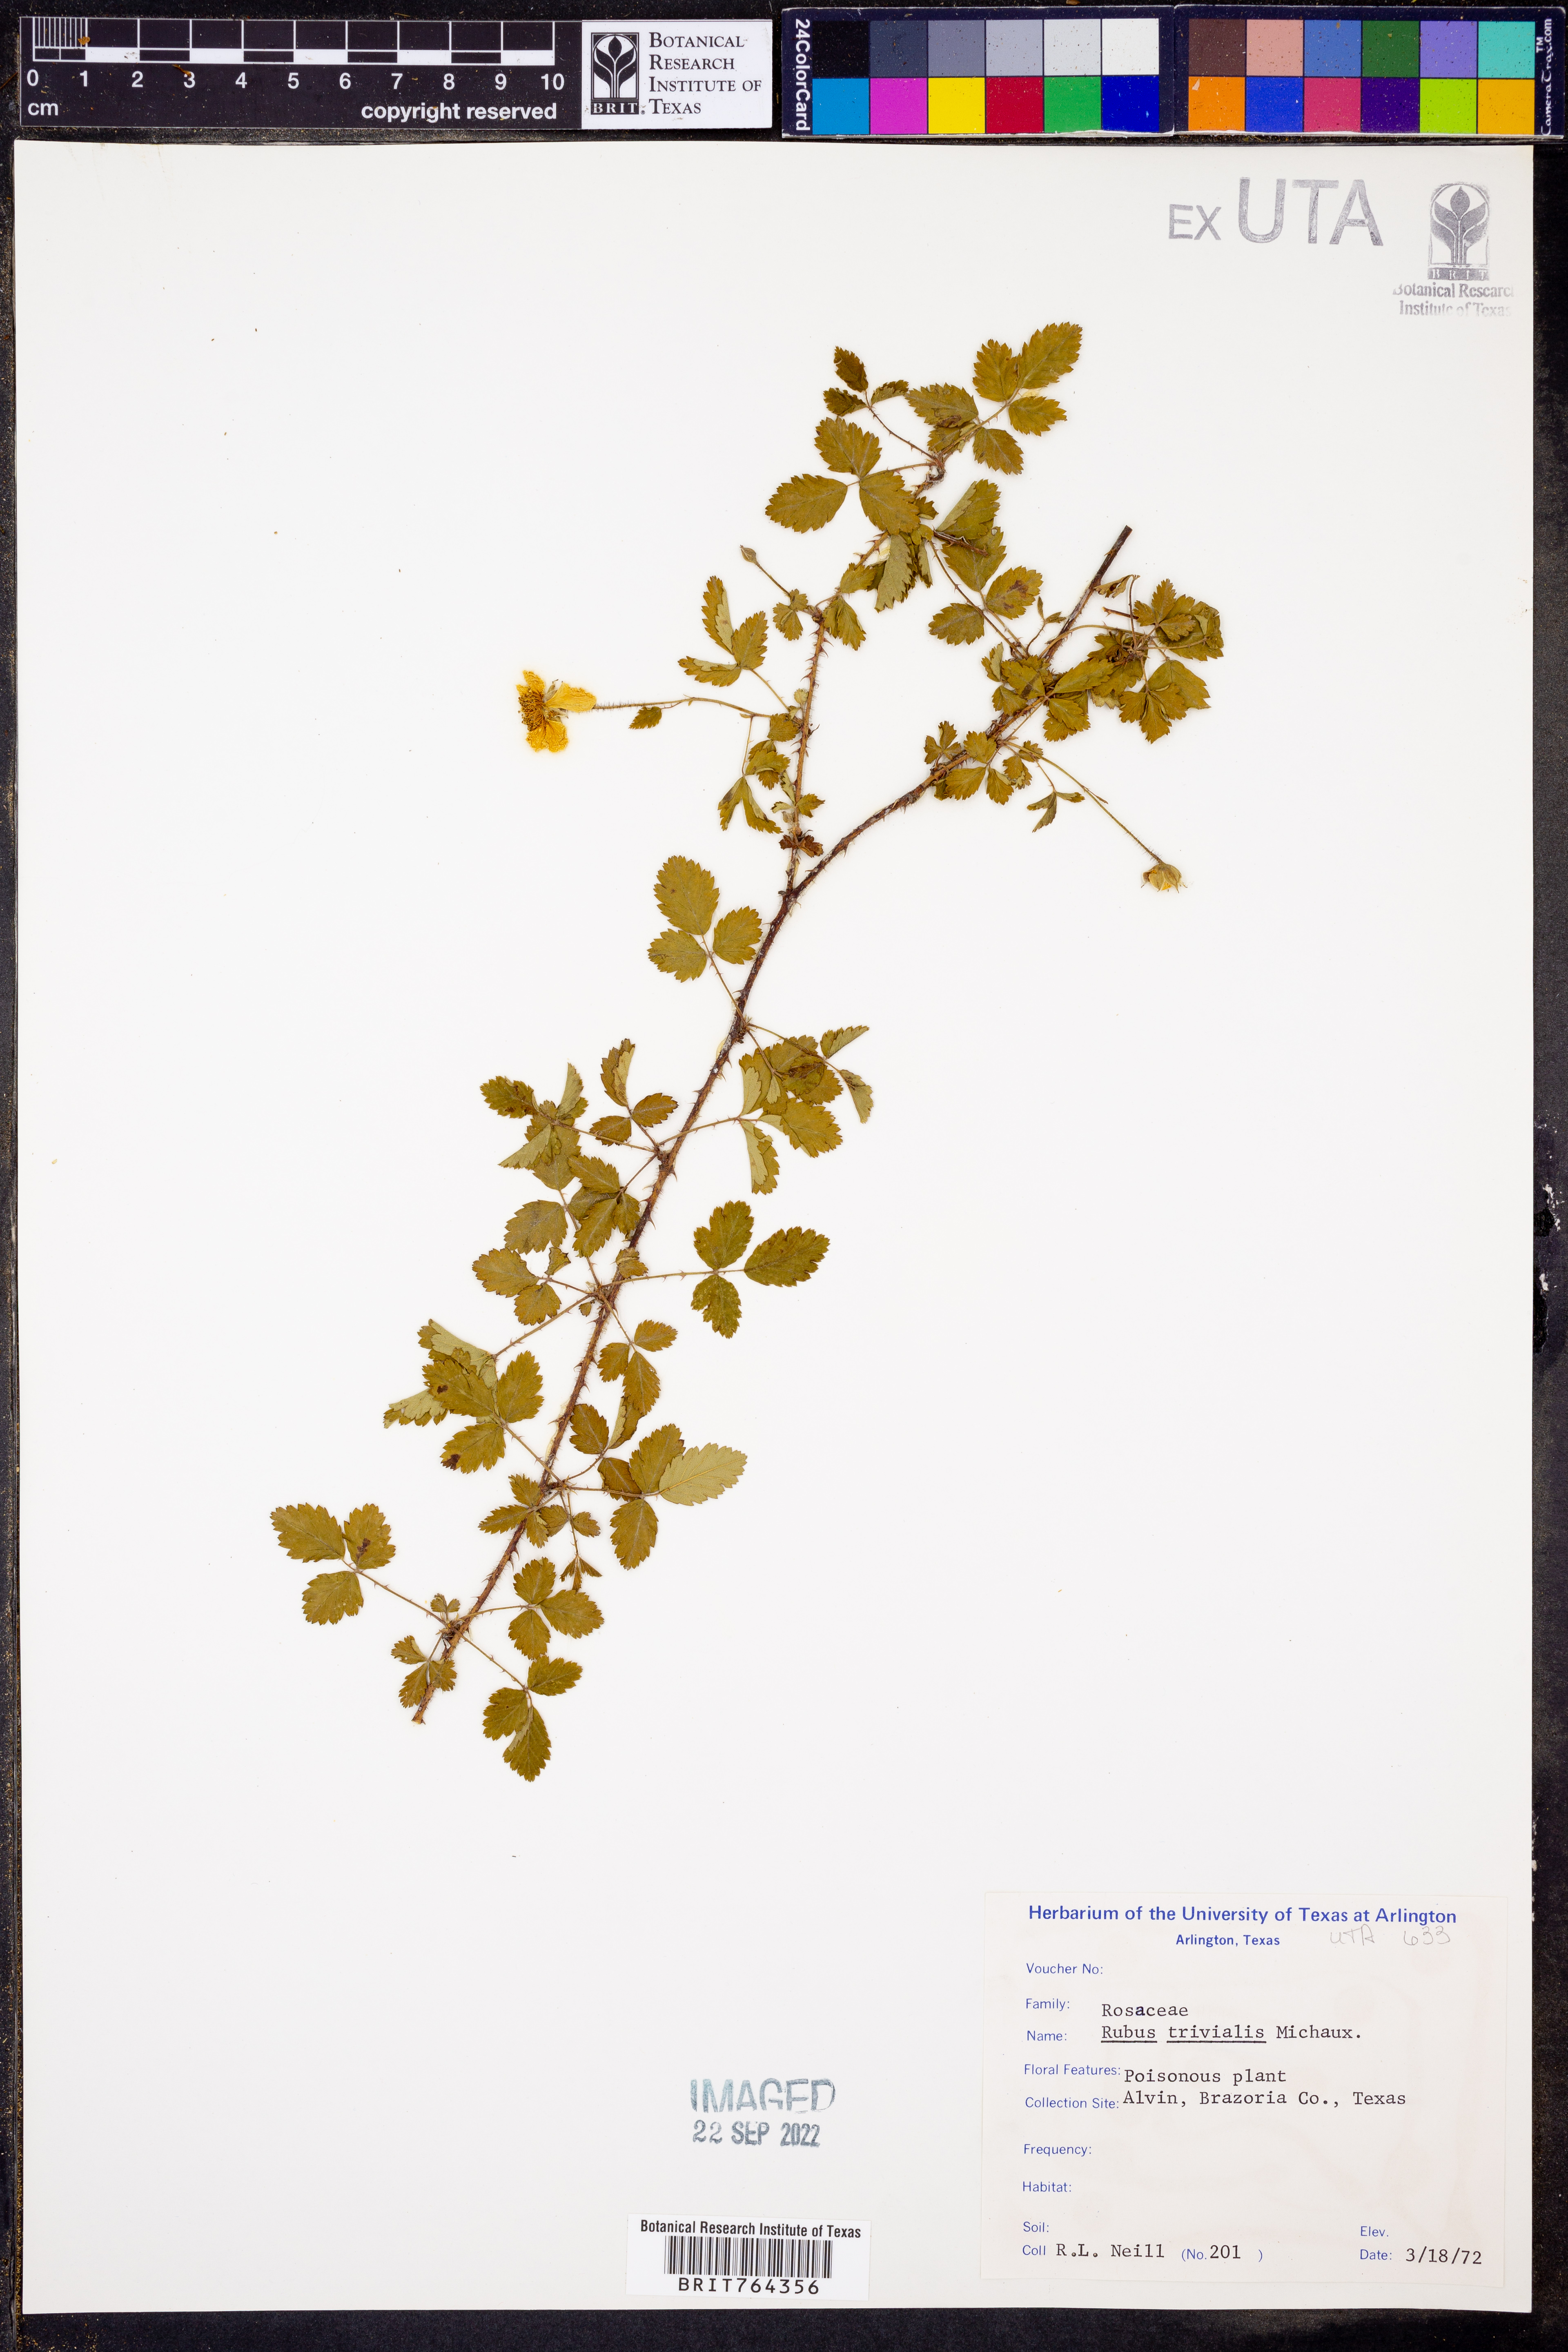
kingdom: Plantae
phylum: Tracheophyta
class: Magnoliopsida
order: Rosales
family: Rosaceae
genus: Rubus
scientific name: Rubus trivialis
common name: Southern dewberry
